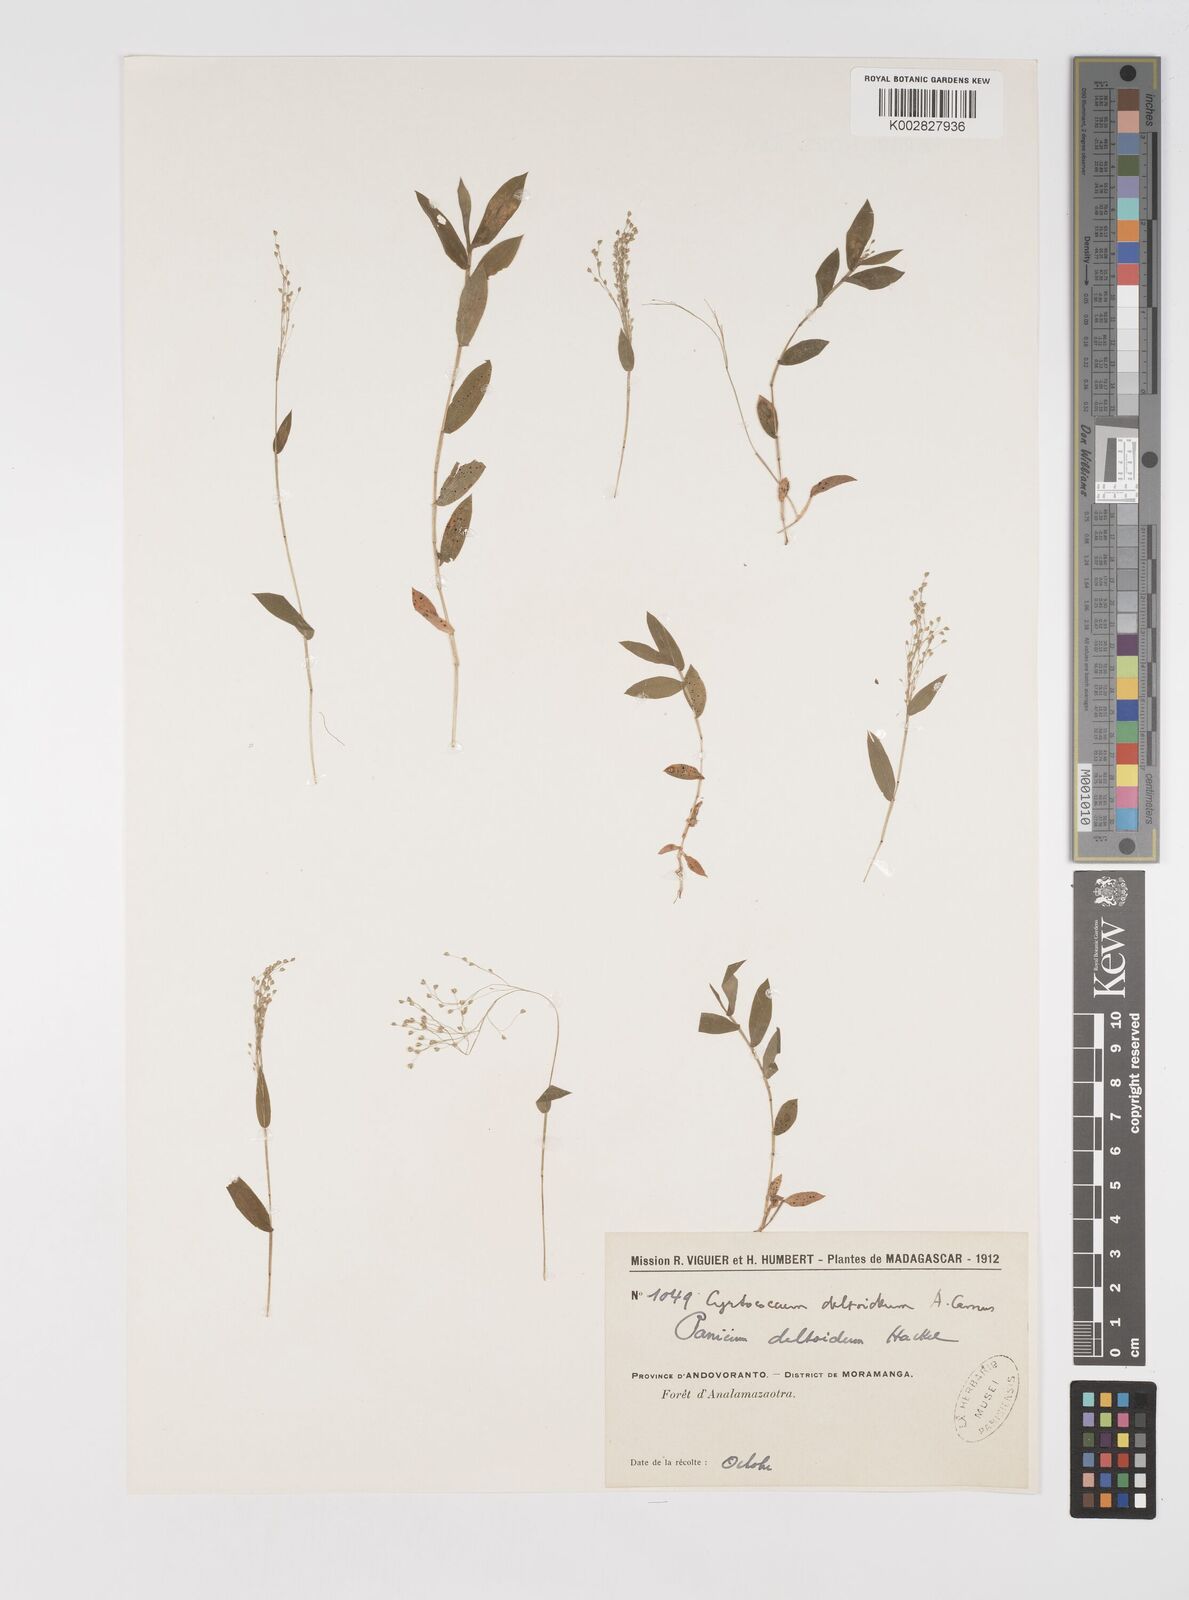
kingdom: Plantae
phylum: Tracheophyta
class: Liliopsida
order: Poales
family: Poaceae
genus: Cyrtococcum
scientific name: Cyrtococcum deltoideum
